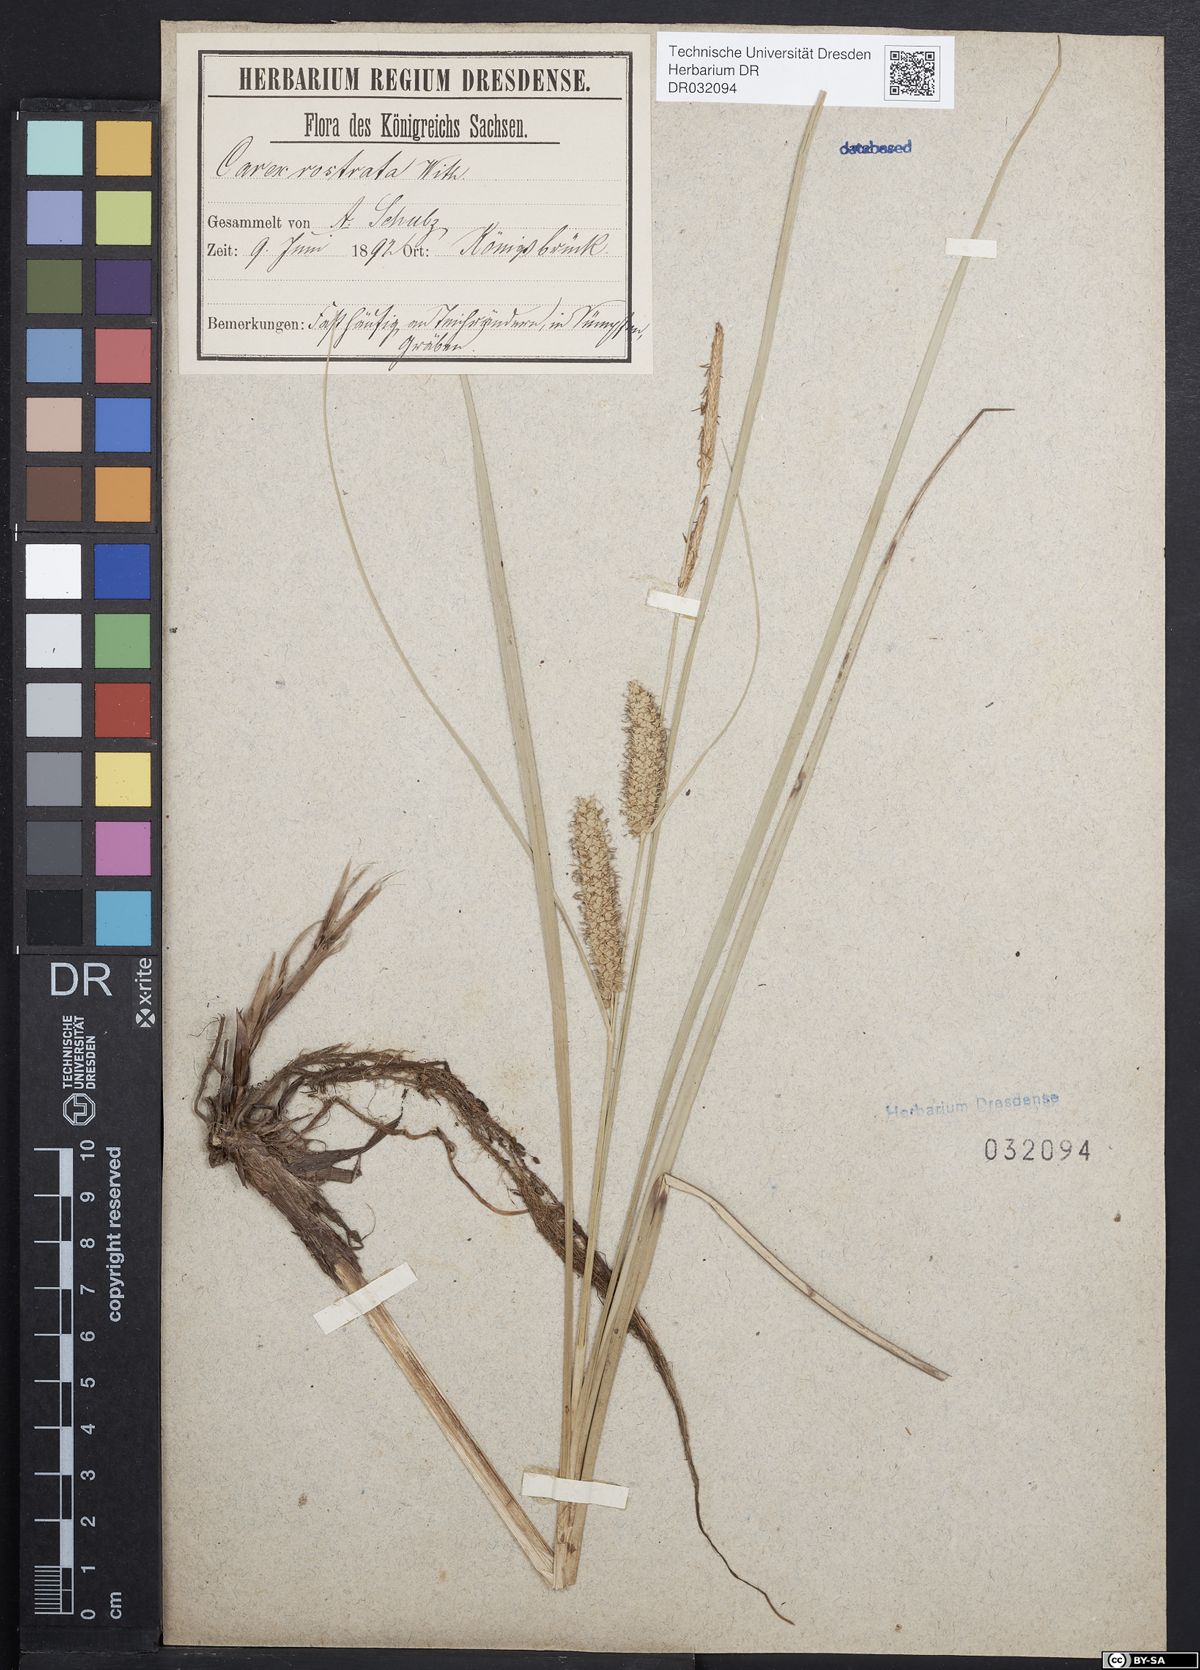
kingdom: Plantae
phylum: Tracheophyta
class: Liliopsida
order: Poales
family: Cyperaceae
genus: Carex
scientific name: Carex rostrata
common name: Bottle sedge
